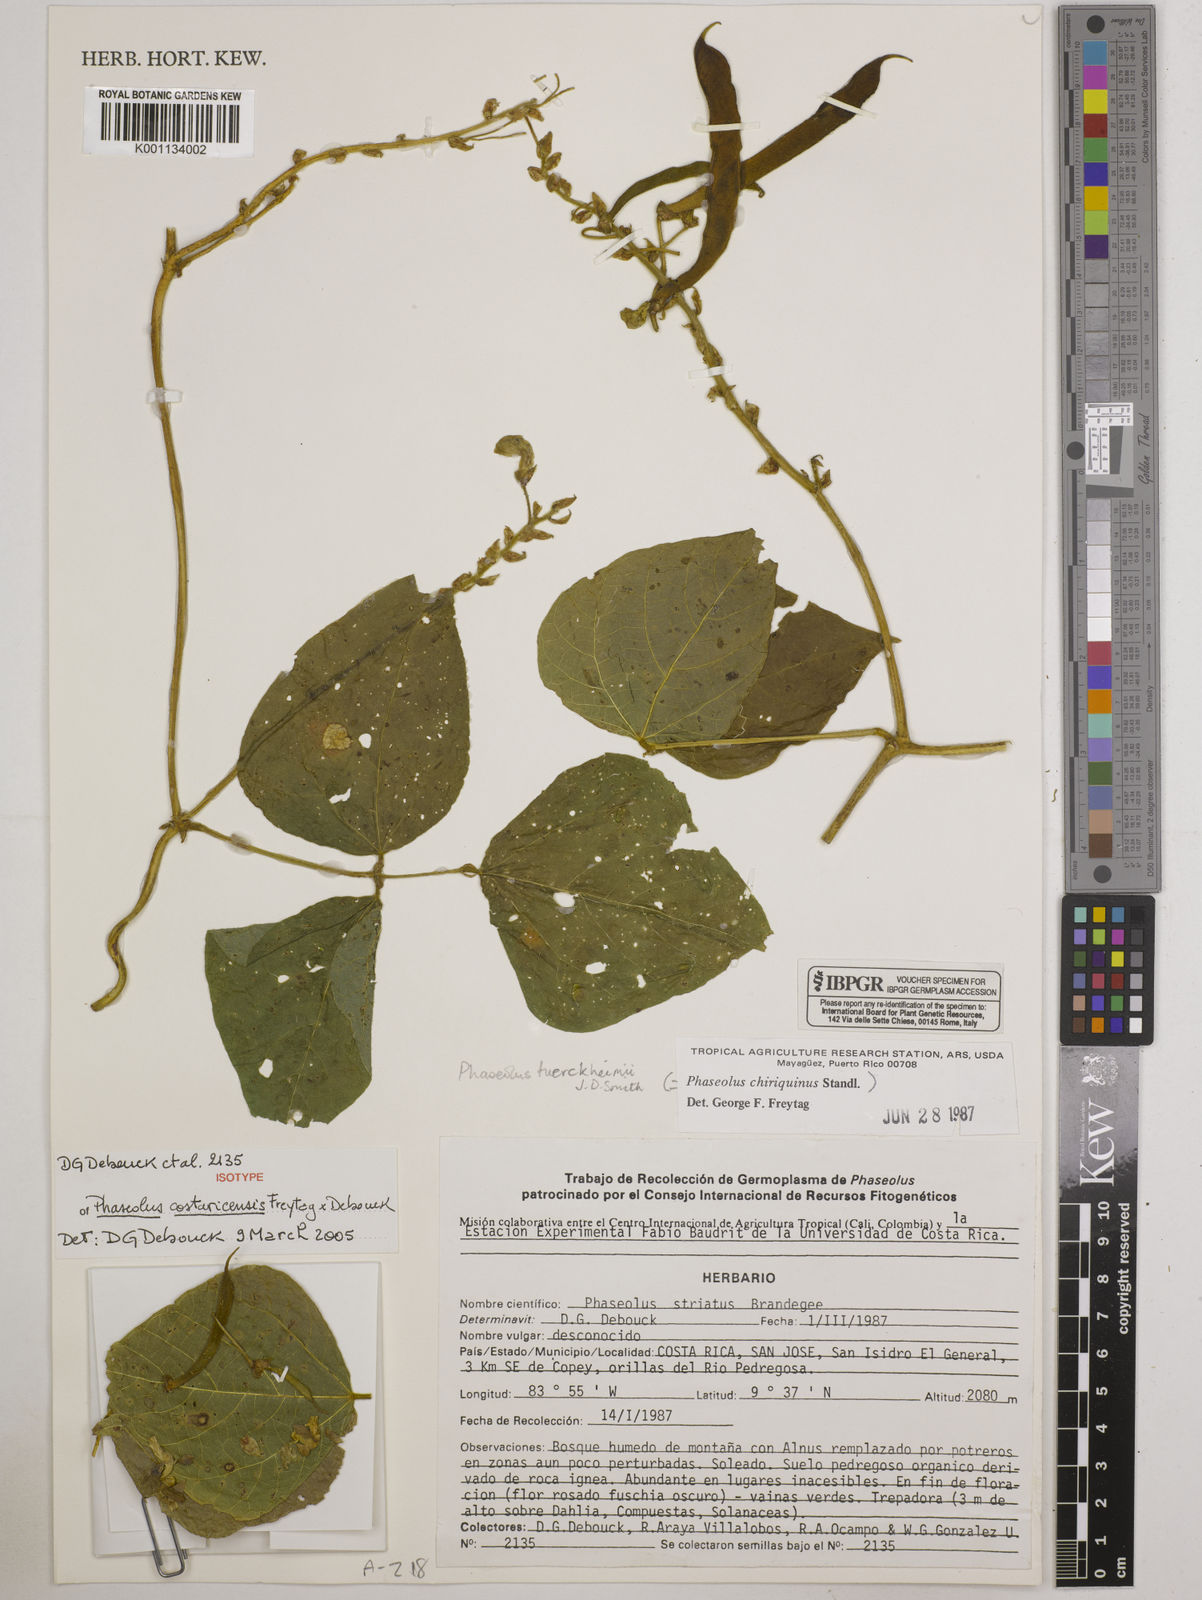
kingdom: Plantae
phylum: Tracheophyta
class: Magnoliopsida
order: Fabales
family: Fabaceae
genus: Phaseolus
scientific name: Phaseolus costaricensis
